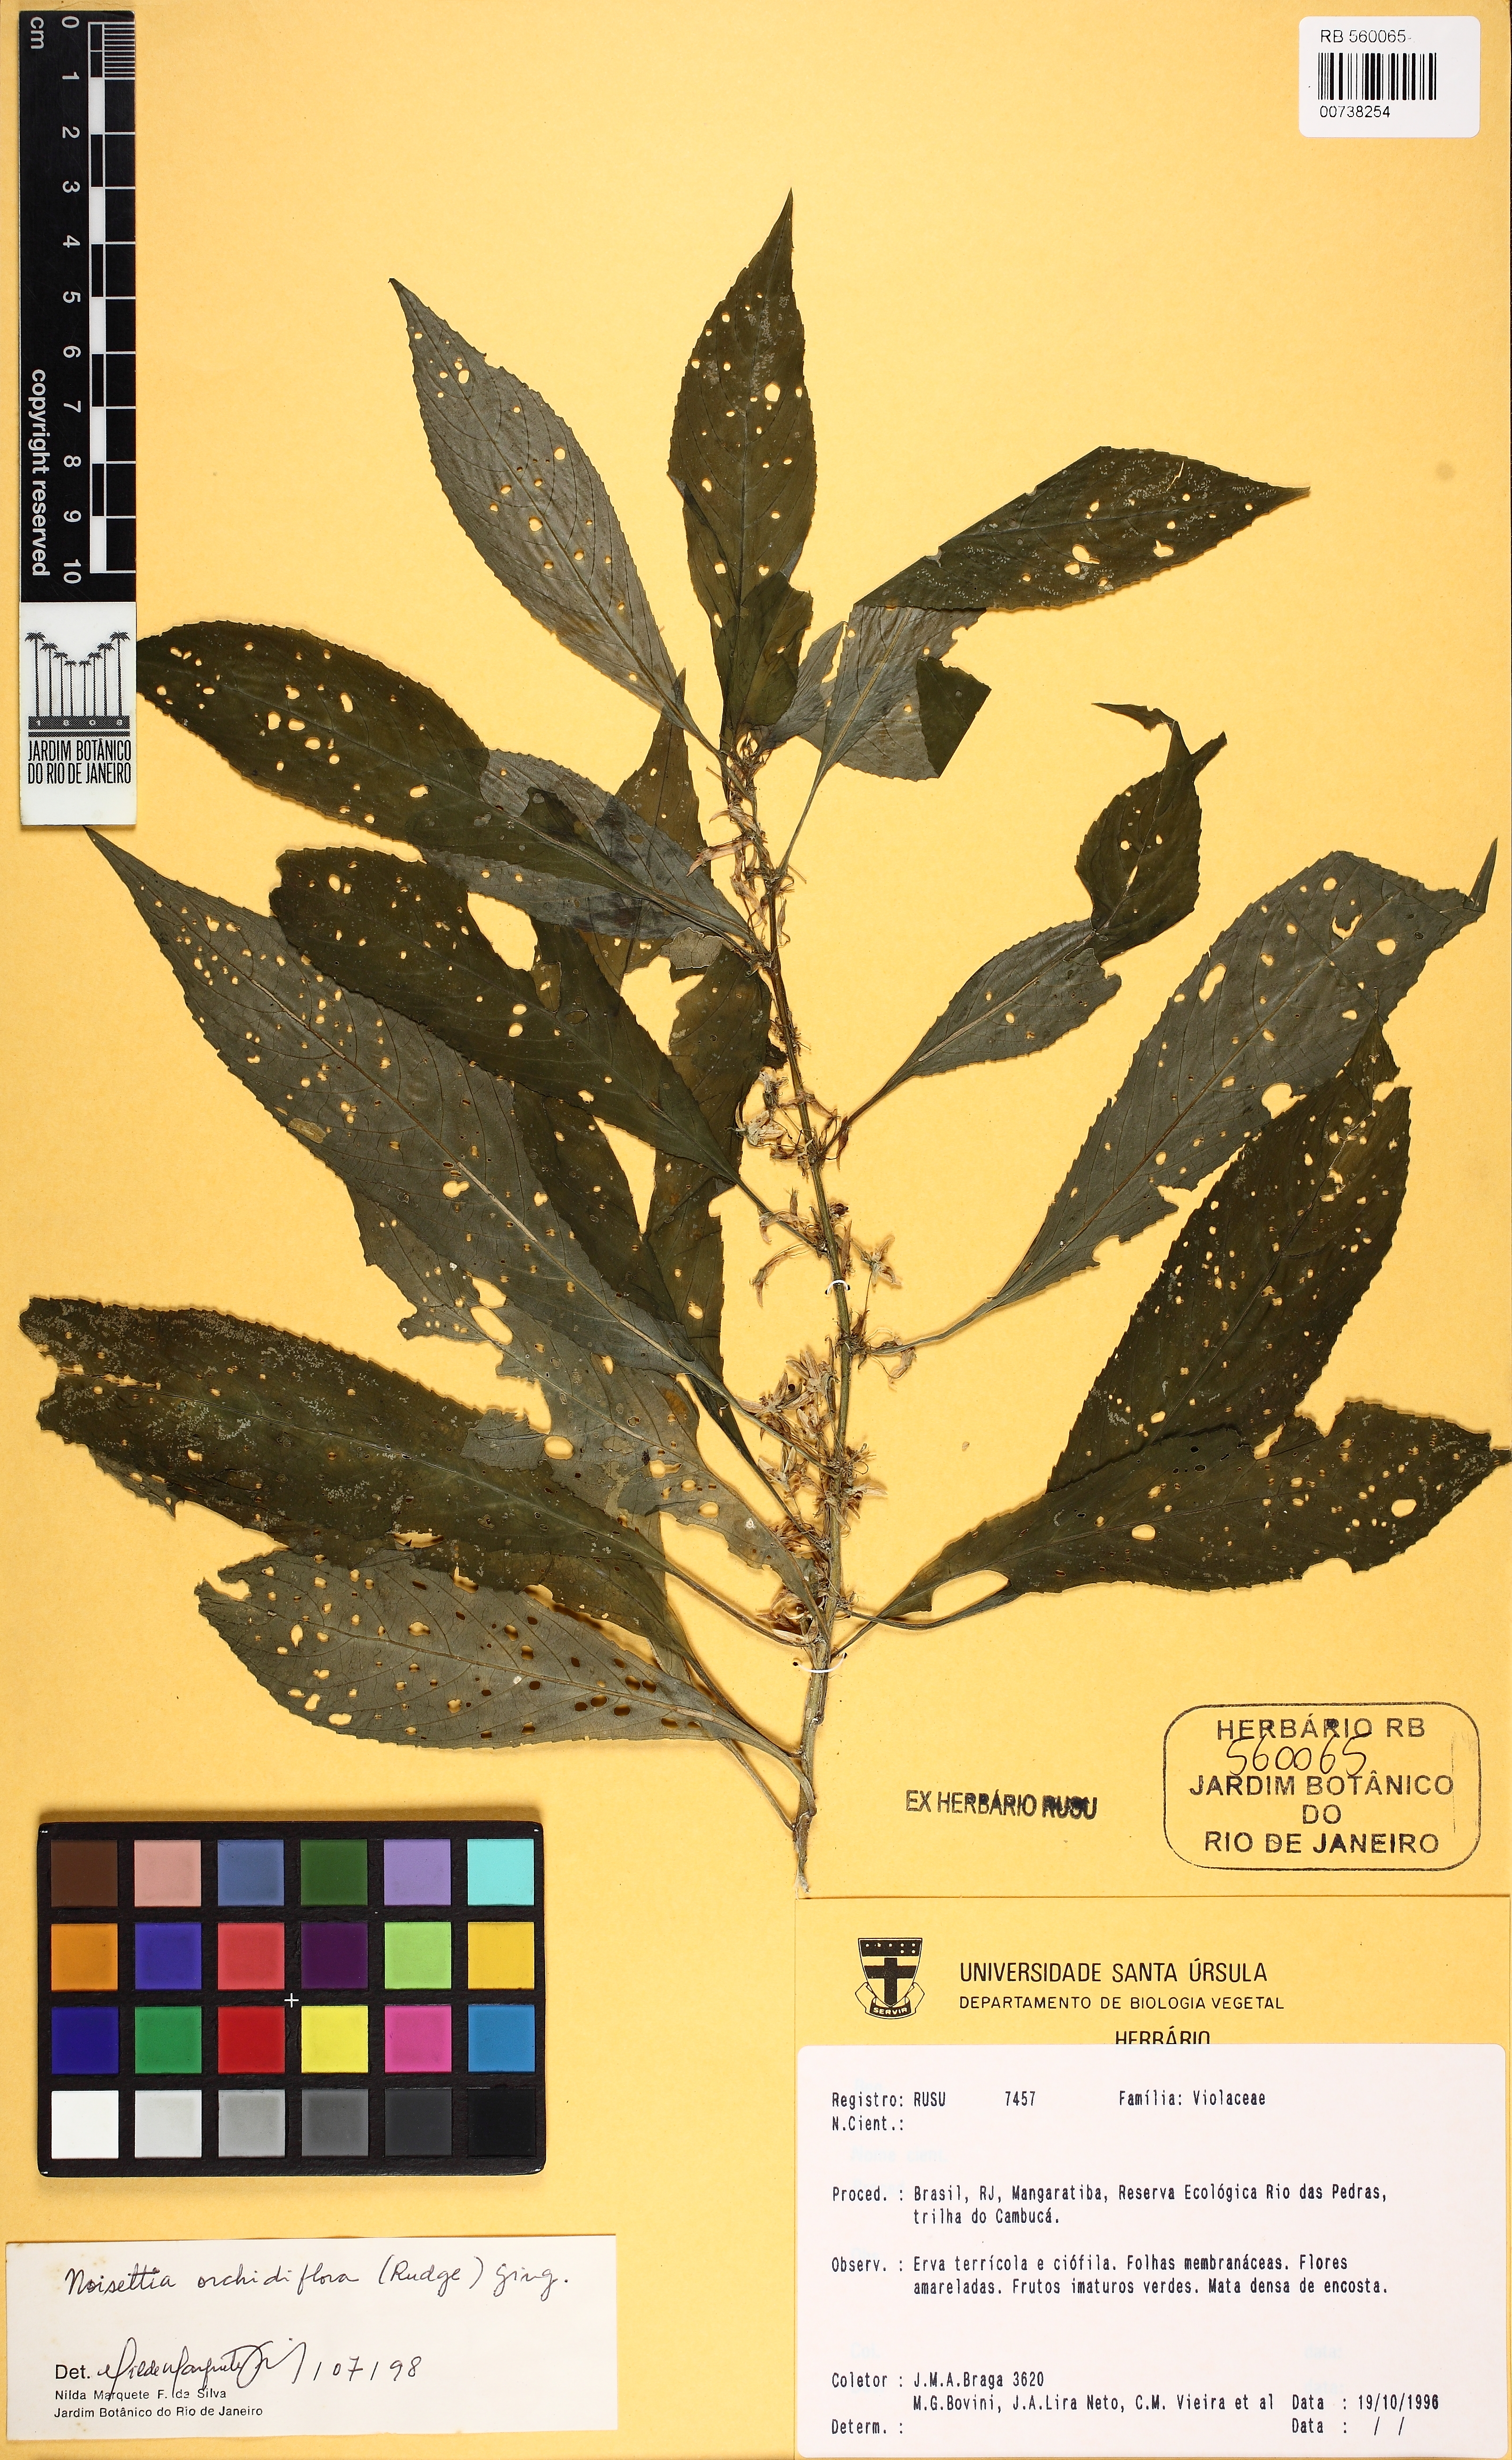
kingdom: Plantae
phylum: Tracheophyta
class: Magnoliopsida
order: Malpighiales
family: Violaceae
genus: Noisettia
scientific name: Noisettia orchidiflora
